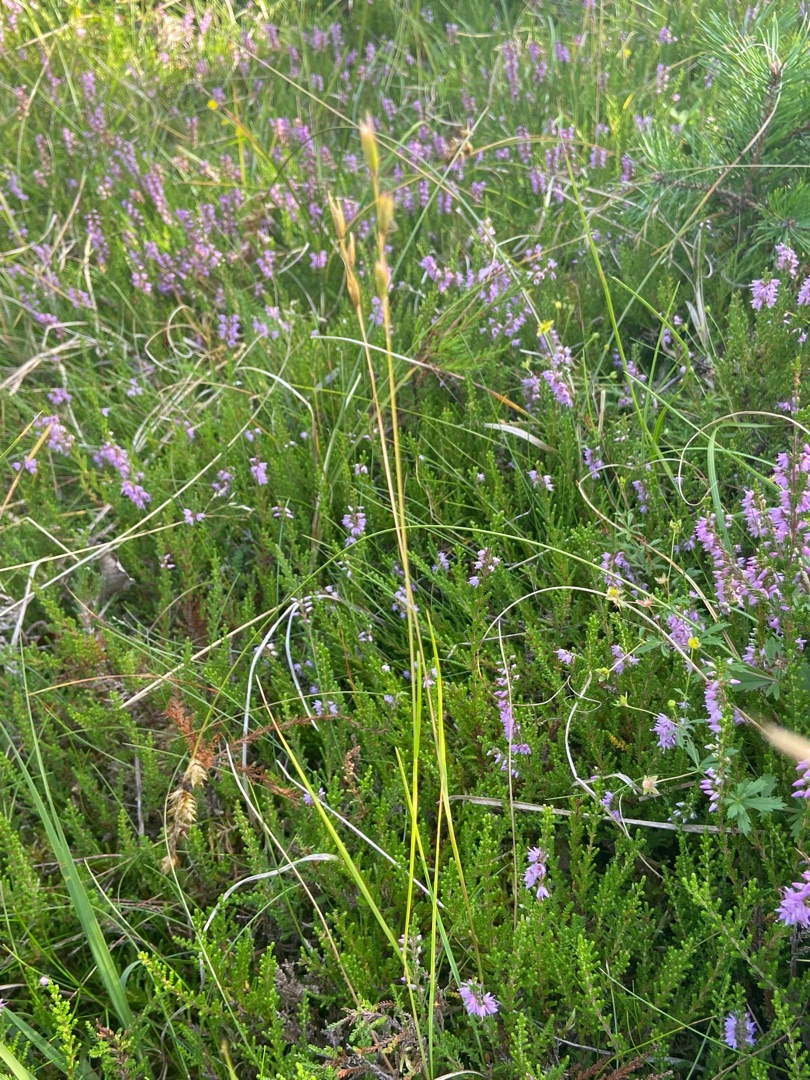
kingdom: Plantae
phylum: Tracheophyta
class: Liliopsida
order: Poales
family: Poaceae
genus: Danthonia
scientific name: Danthonia decumbens
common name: Tandbælg
